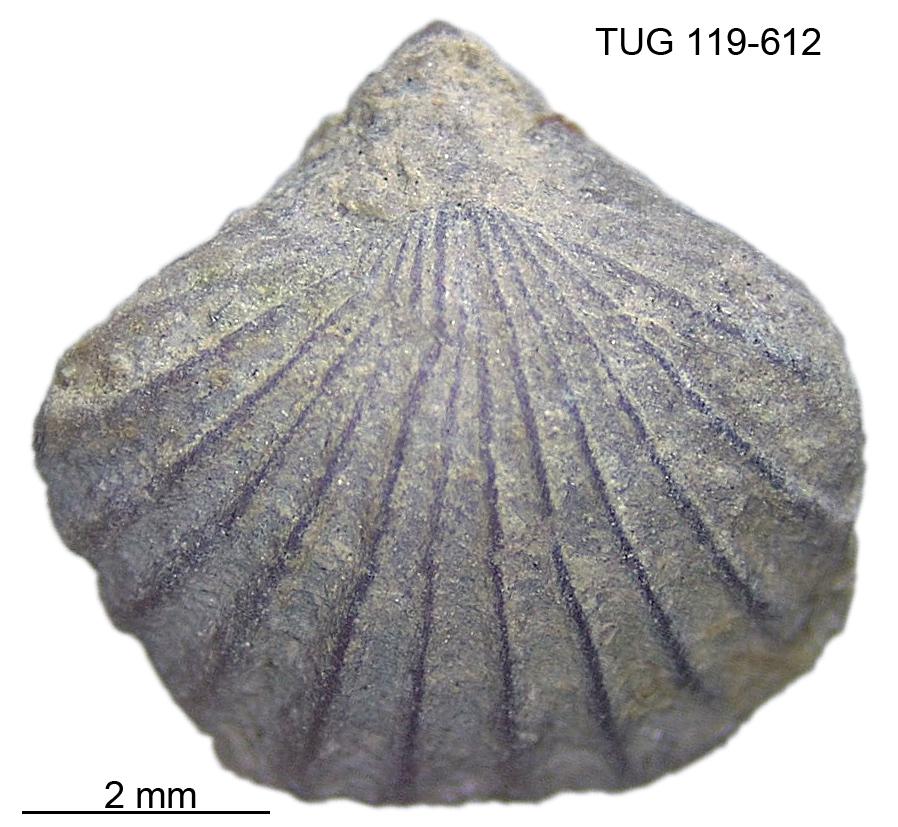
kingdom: Animalia
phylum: Brachiopoda
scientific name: Brachiopoda
